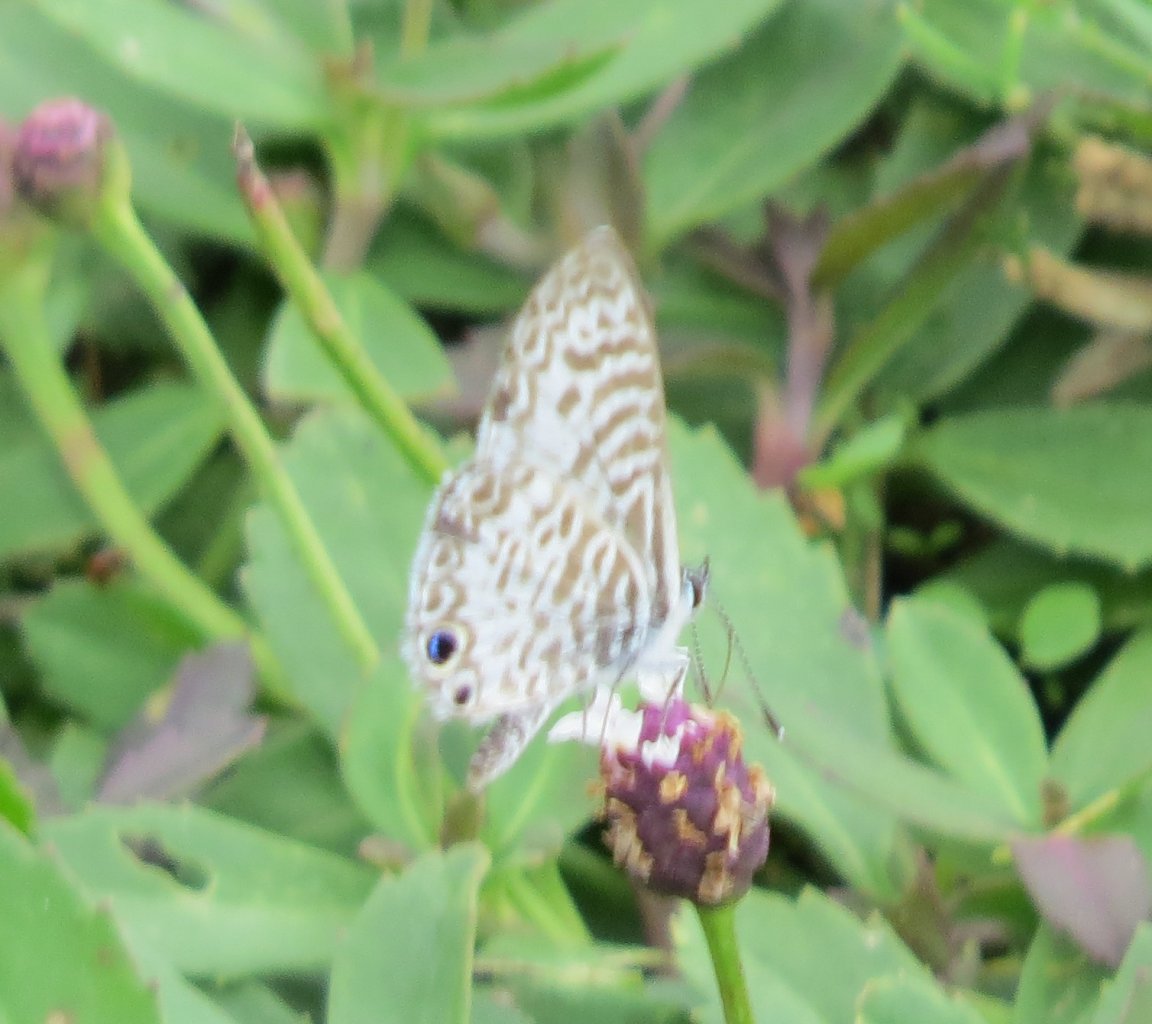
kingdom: Animalia
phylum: Arthropoda
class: Insecta
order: Lepidoptera
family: Lycaenidae
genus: Leptotes
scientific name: Leptotes cassius
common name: Cassius Blue
